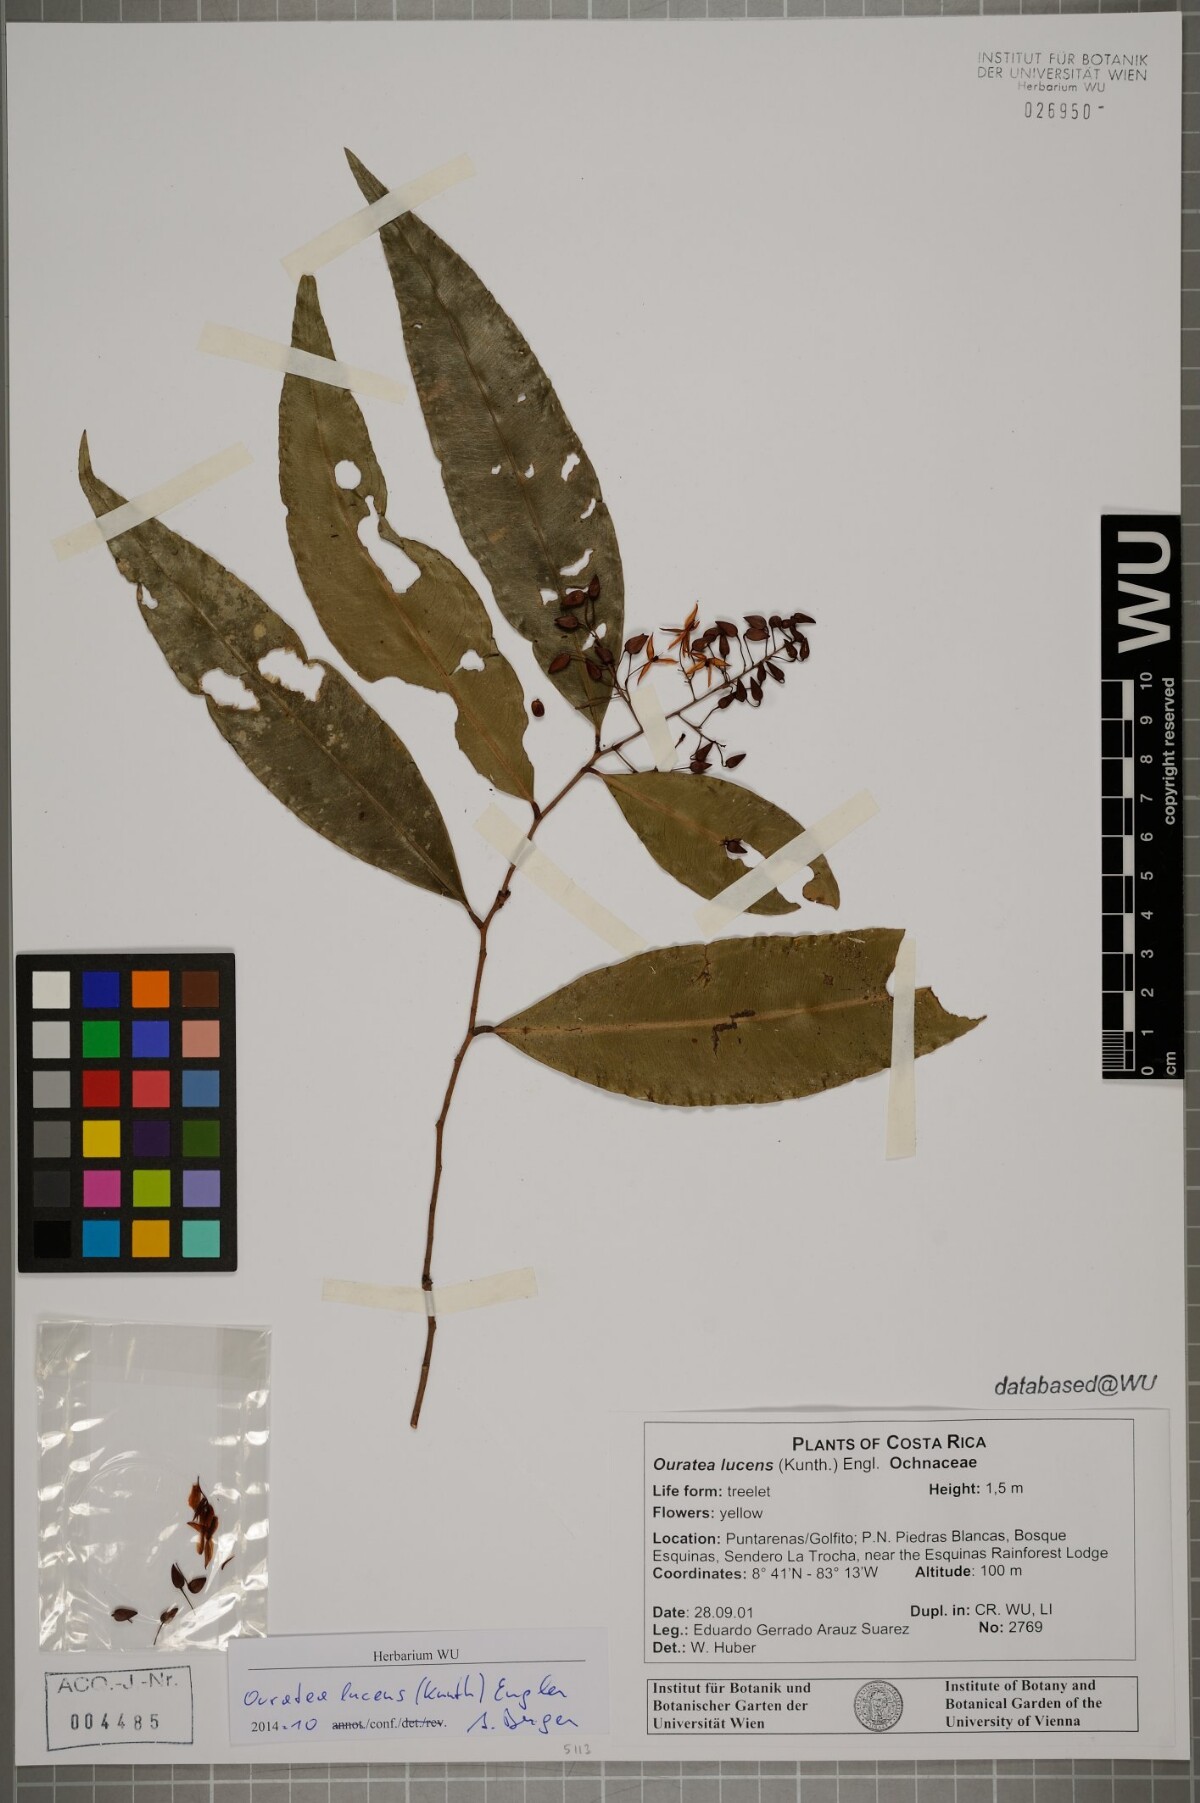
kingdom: Plantae
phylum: Tracheophyta
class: Magnoliopsida
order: Malpighiales
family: Ochnaceae
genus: Ouratea
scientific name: Ouratea lucens
